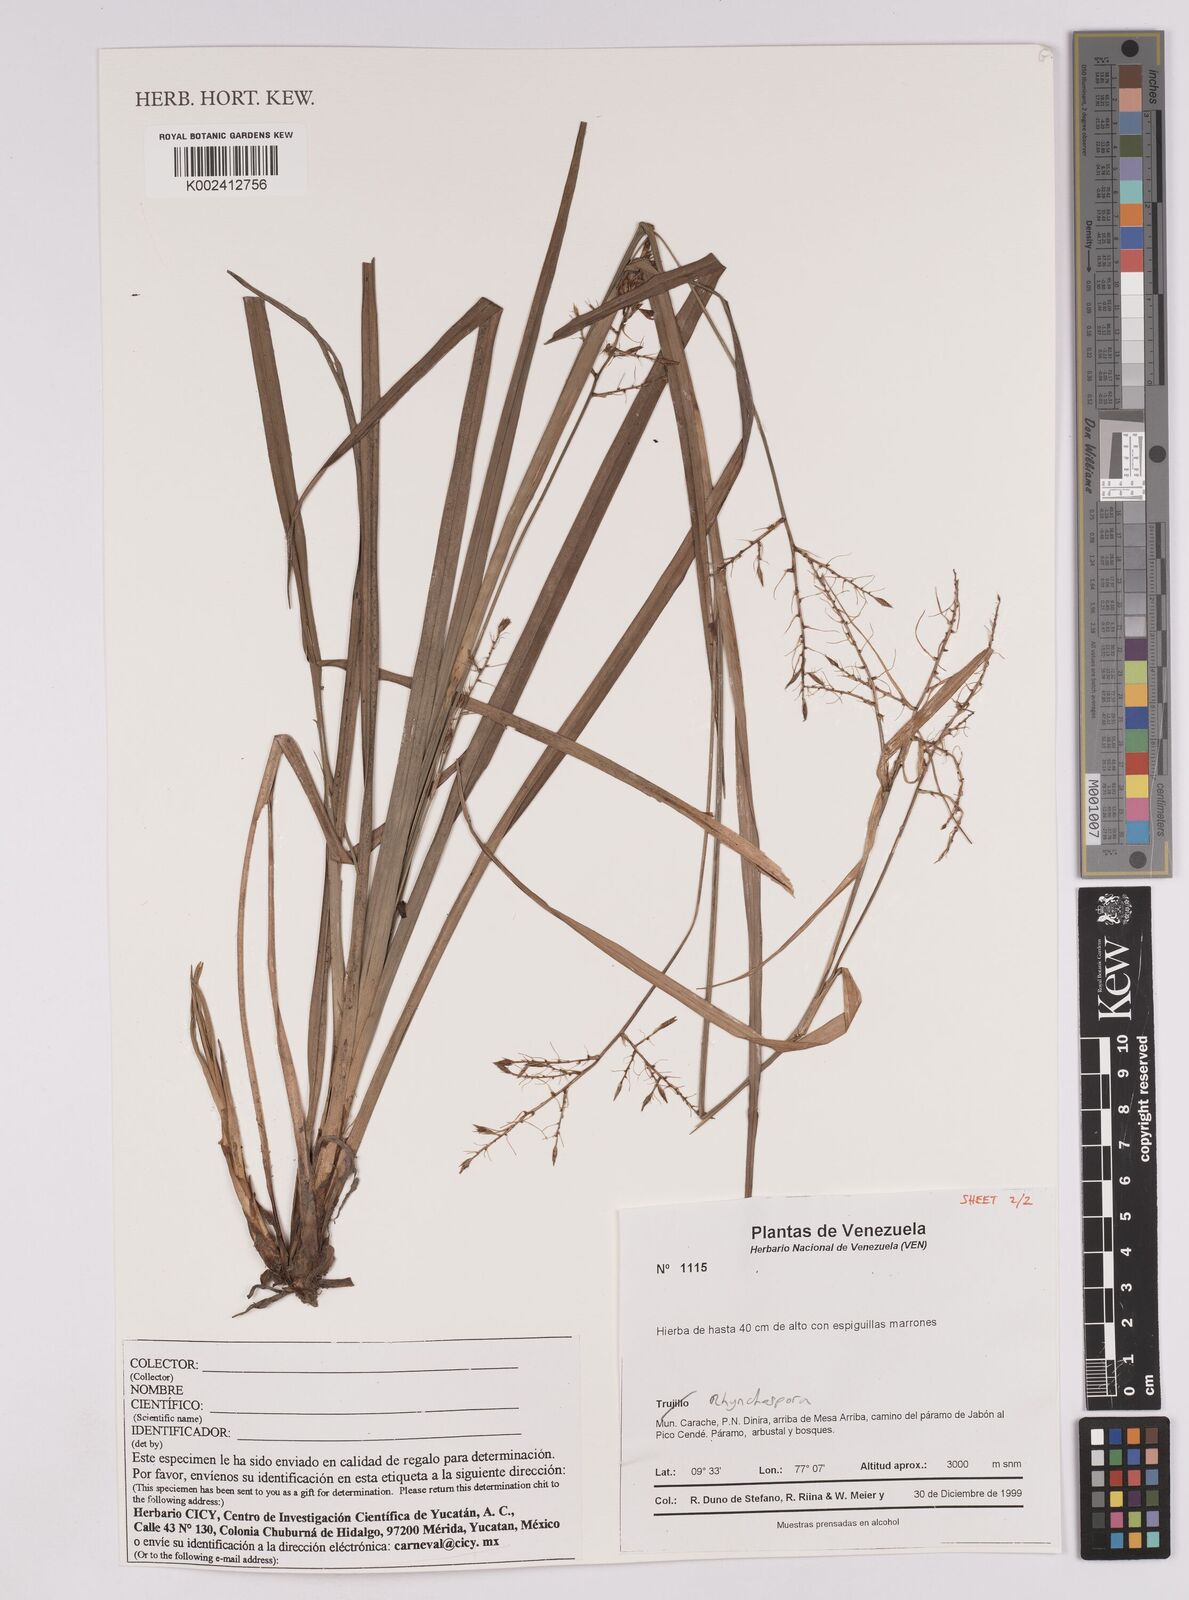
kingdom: Plantae
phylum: Tracheophyta
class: Liliopsida
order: Poales
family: Cyperaceae
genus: Rhynchospora
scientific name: Rhynchospora
